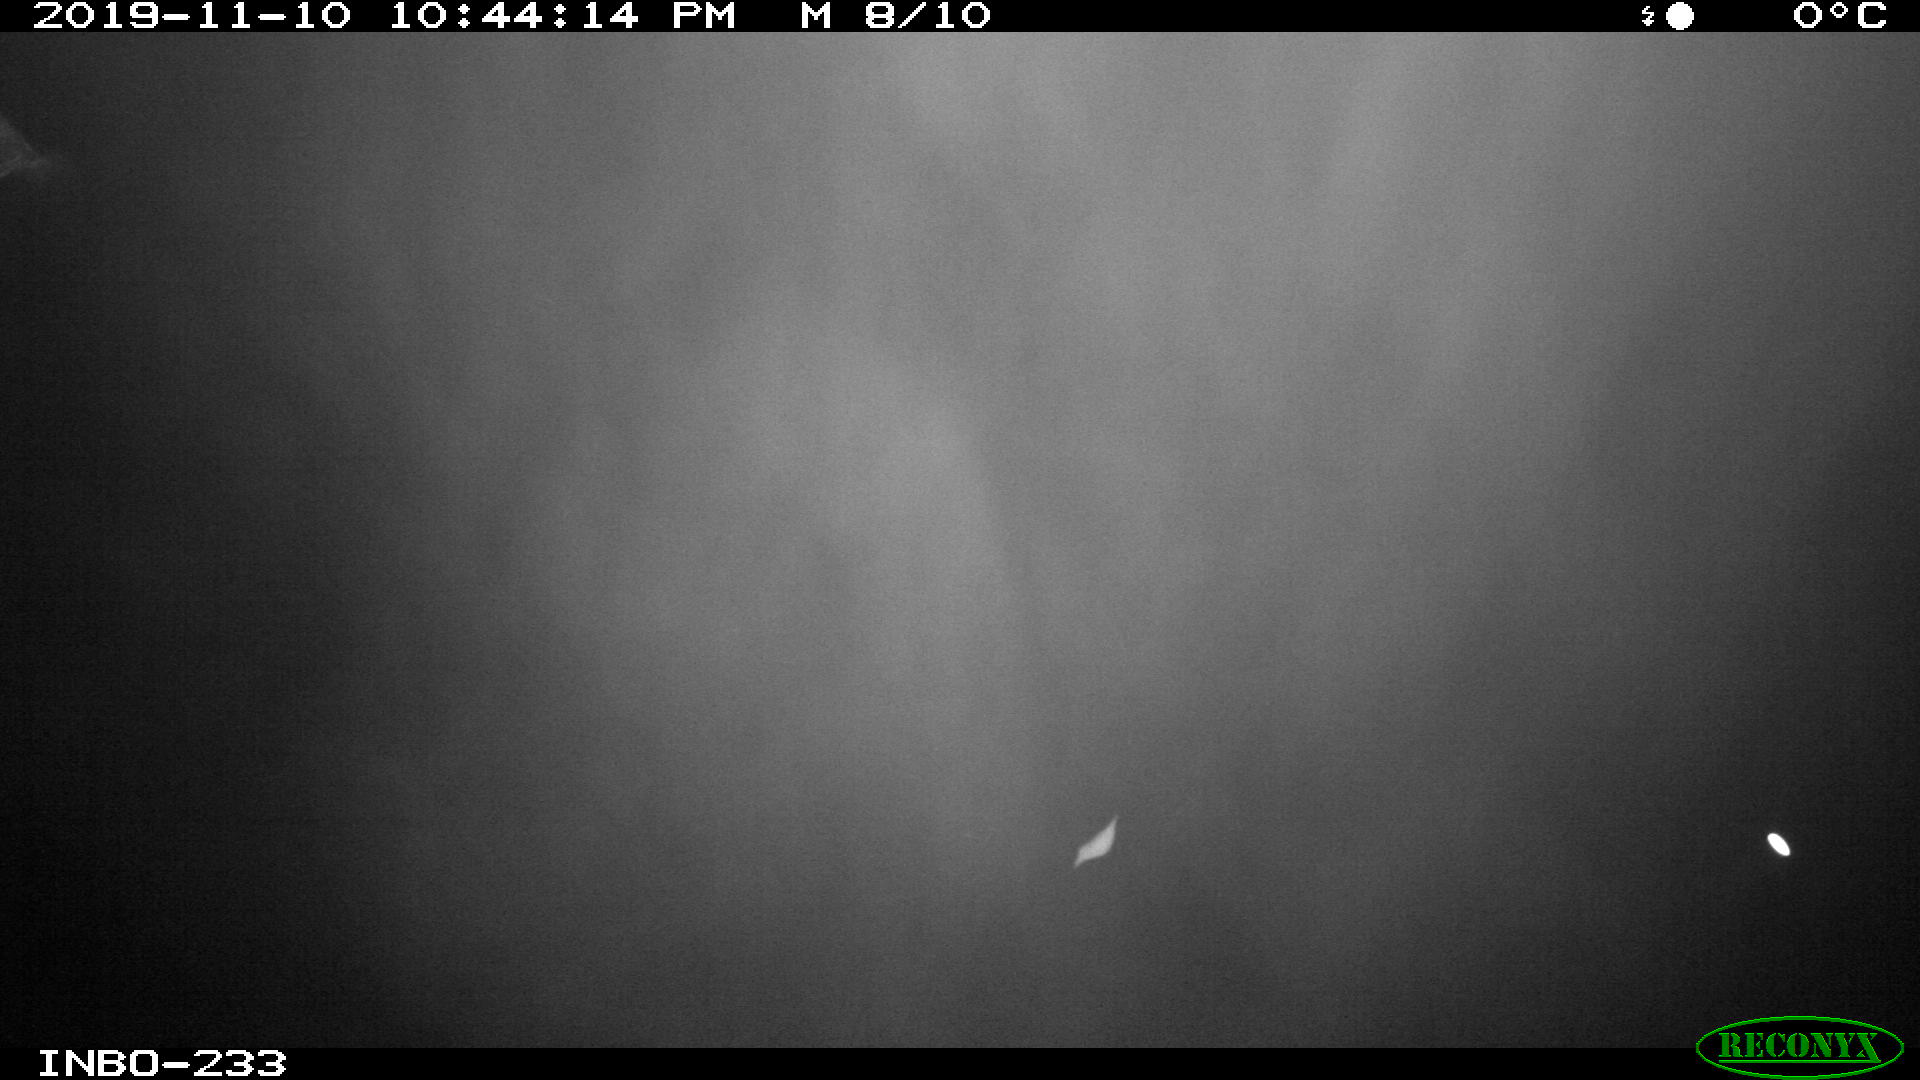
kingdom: Animalia
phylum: Chordata
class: Aves
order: Anseriformes
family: Anatidae
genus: Anas
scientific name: Anas platyrhynchos
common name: Mallard
